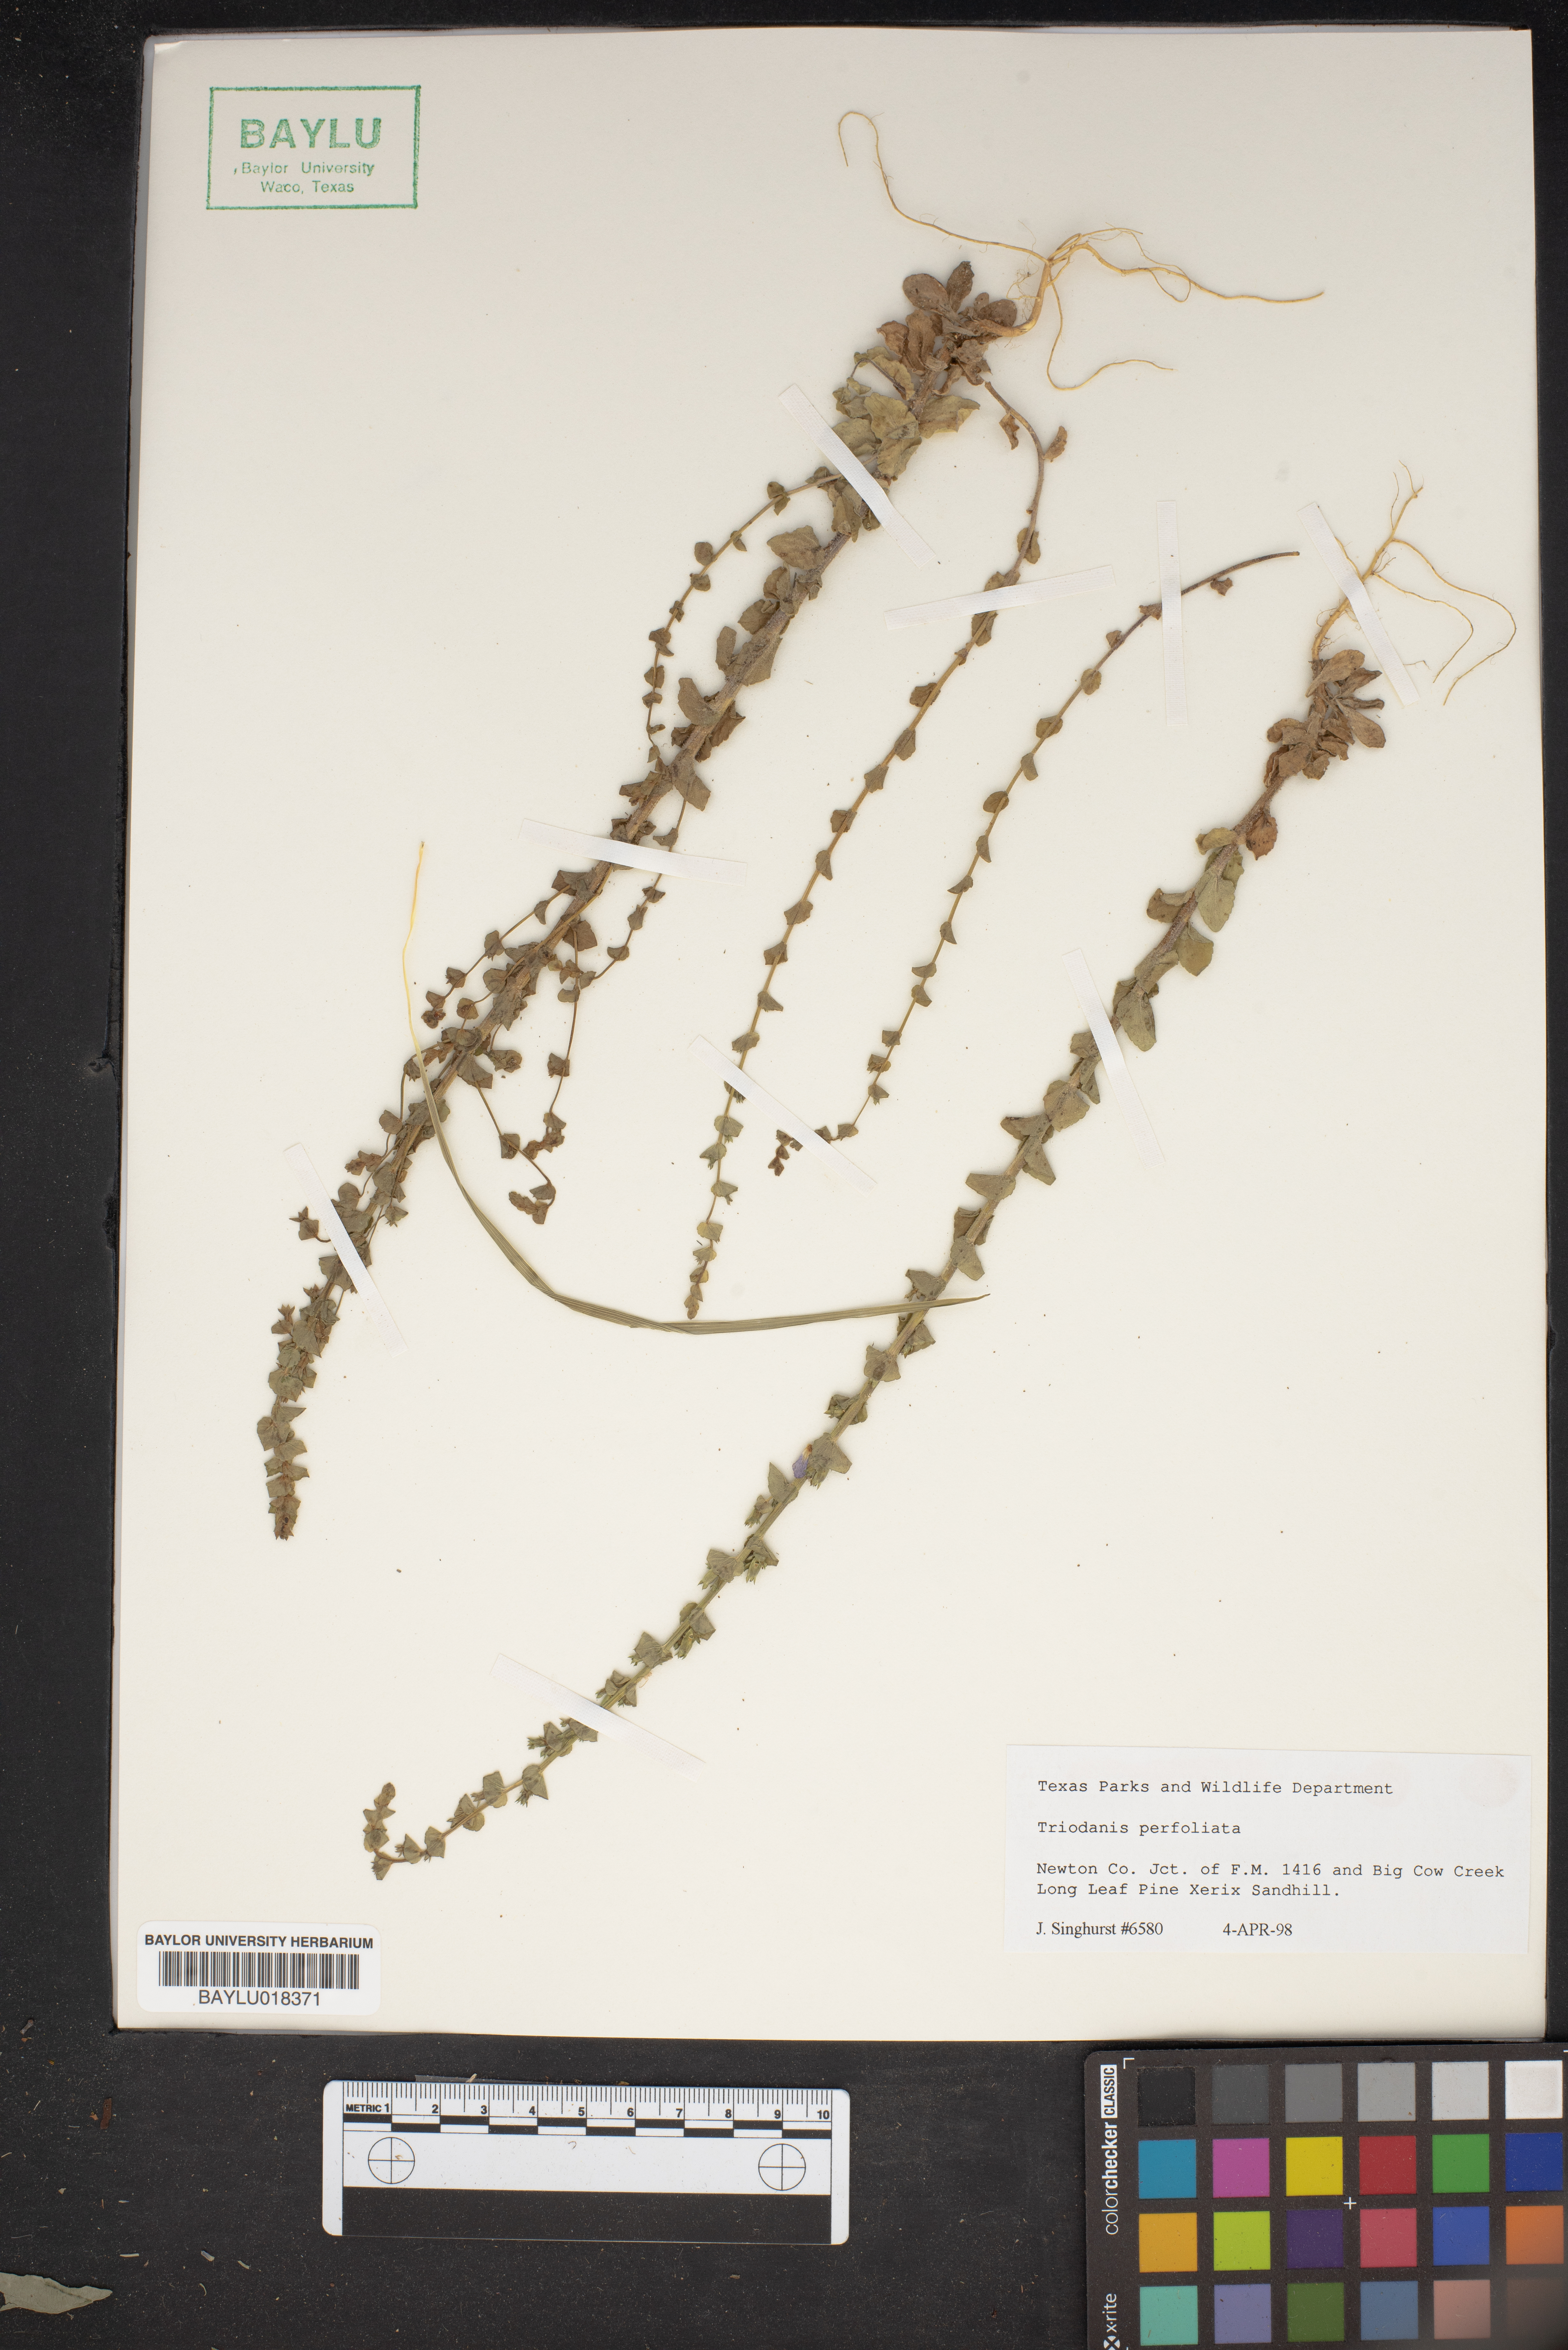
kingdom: Plantae
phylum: Tracheophyta
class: Magnoliopsida
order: Asterales
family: Campanulaceae
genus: Triodanis
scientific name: Triodanis perfoliata
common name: Clasping venus' looking-glass
